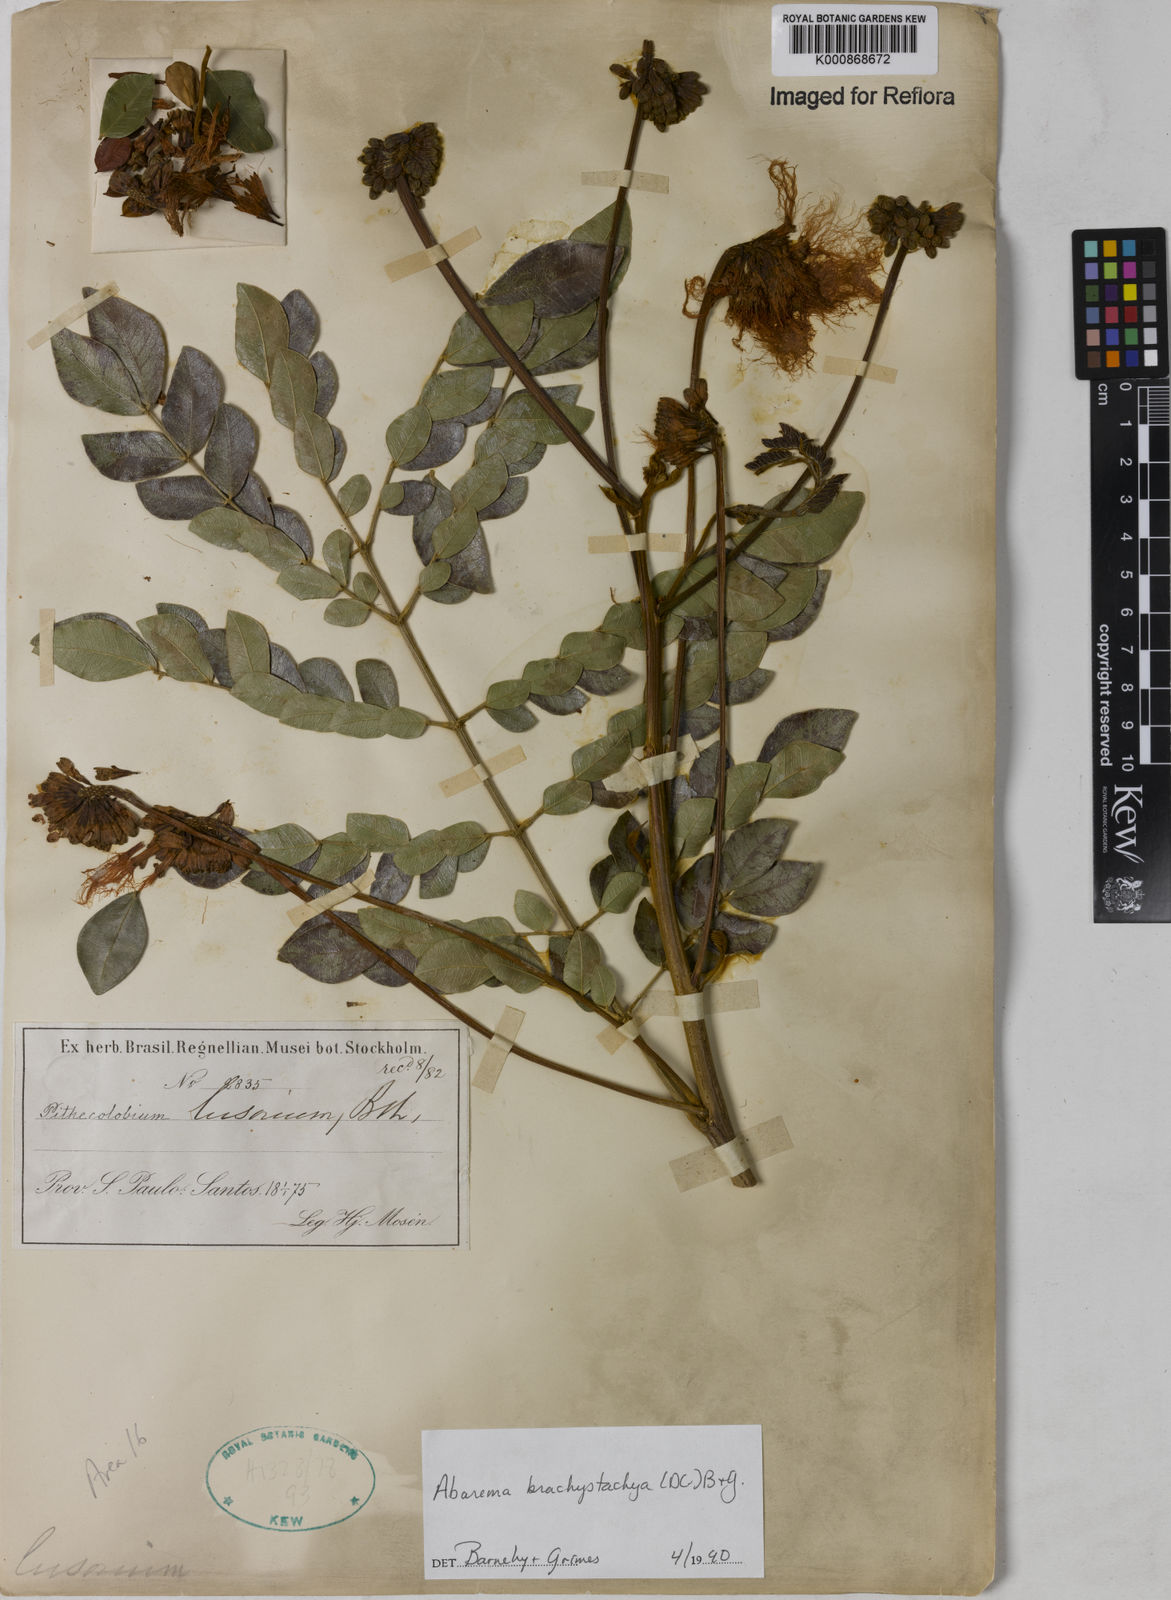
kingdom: Plantae
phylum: Tracheophyta
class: Magnoliopsida
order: Fabales
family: Fabaceae
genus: Abarema
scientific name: Abarema
